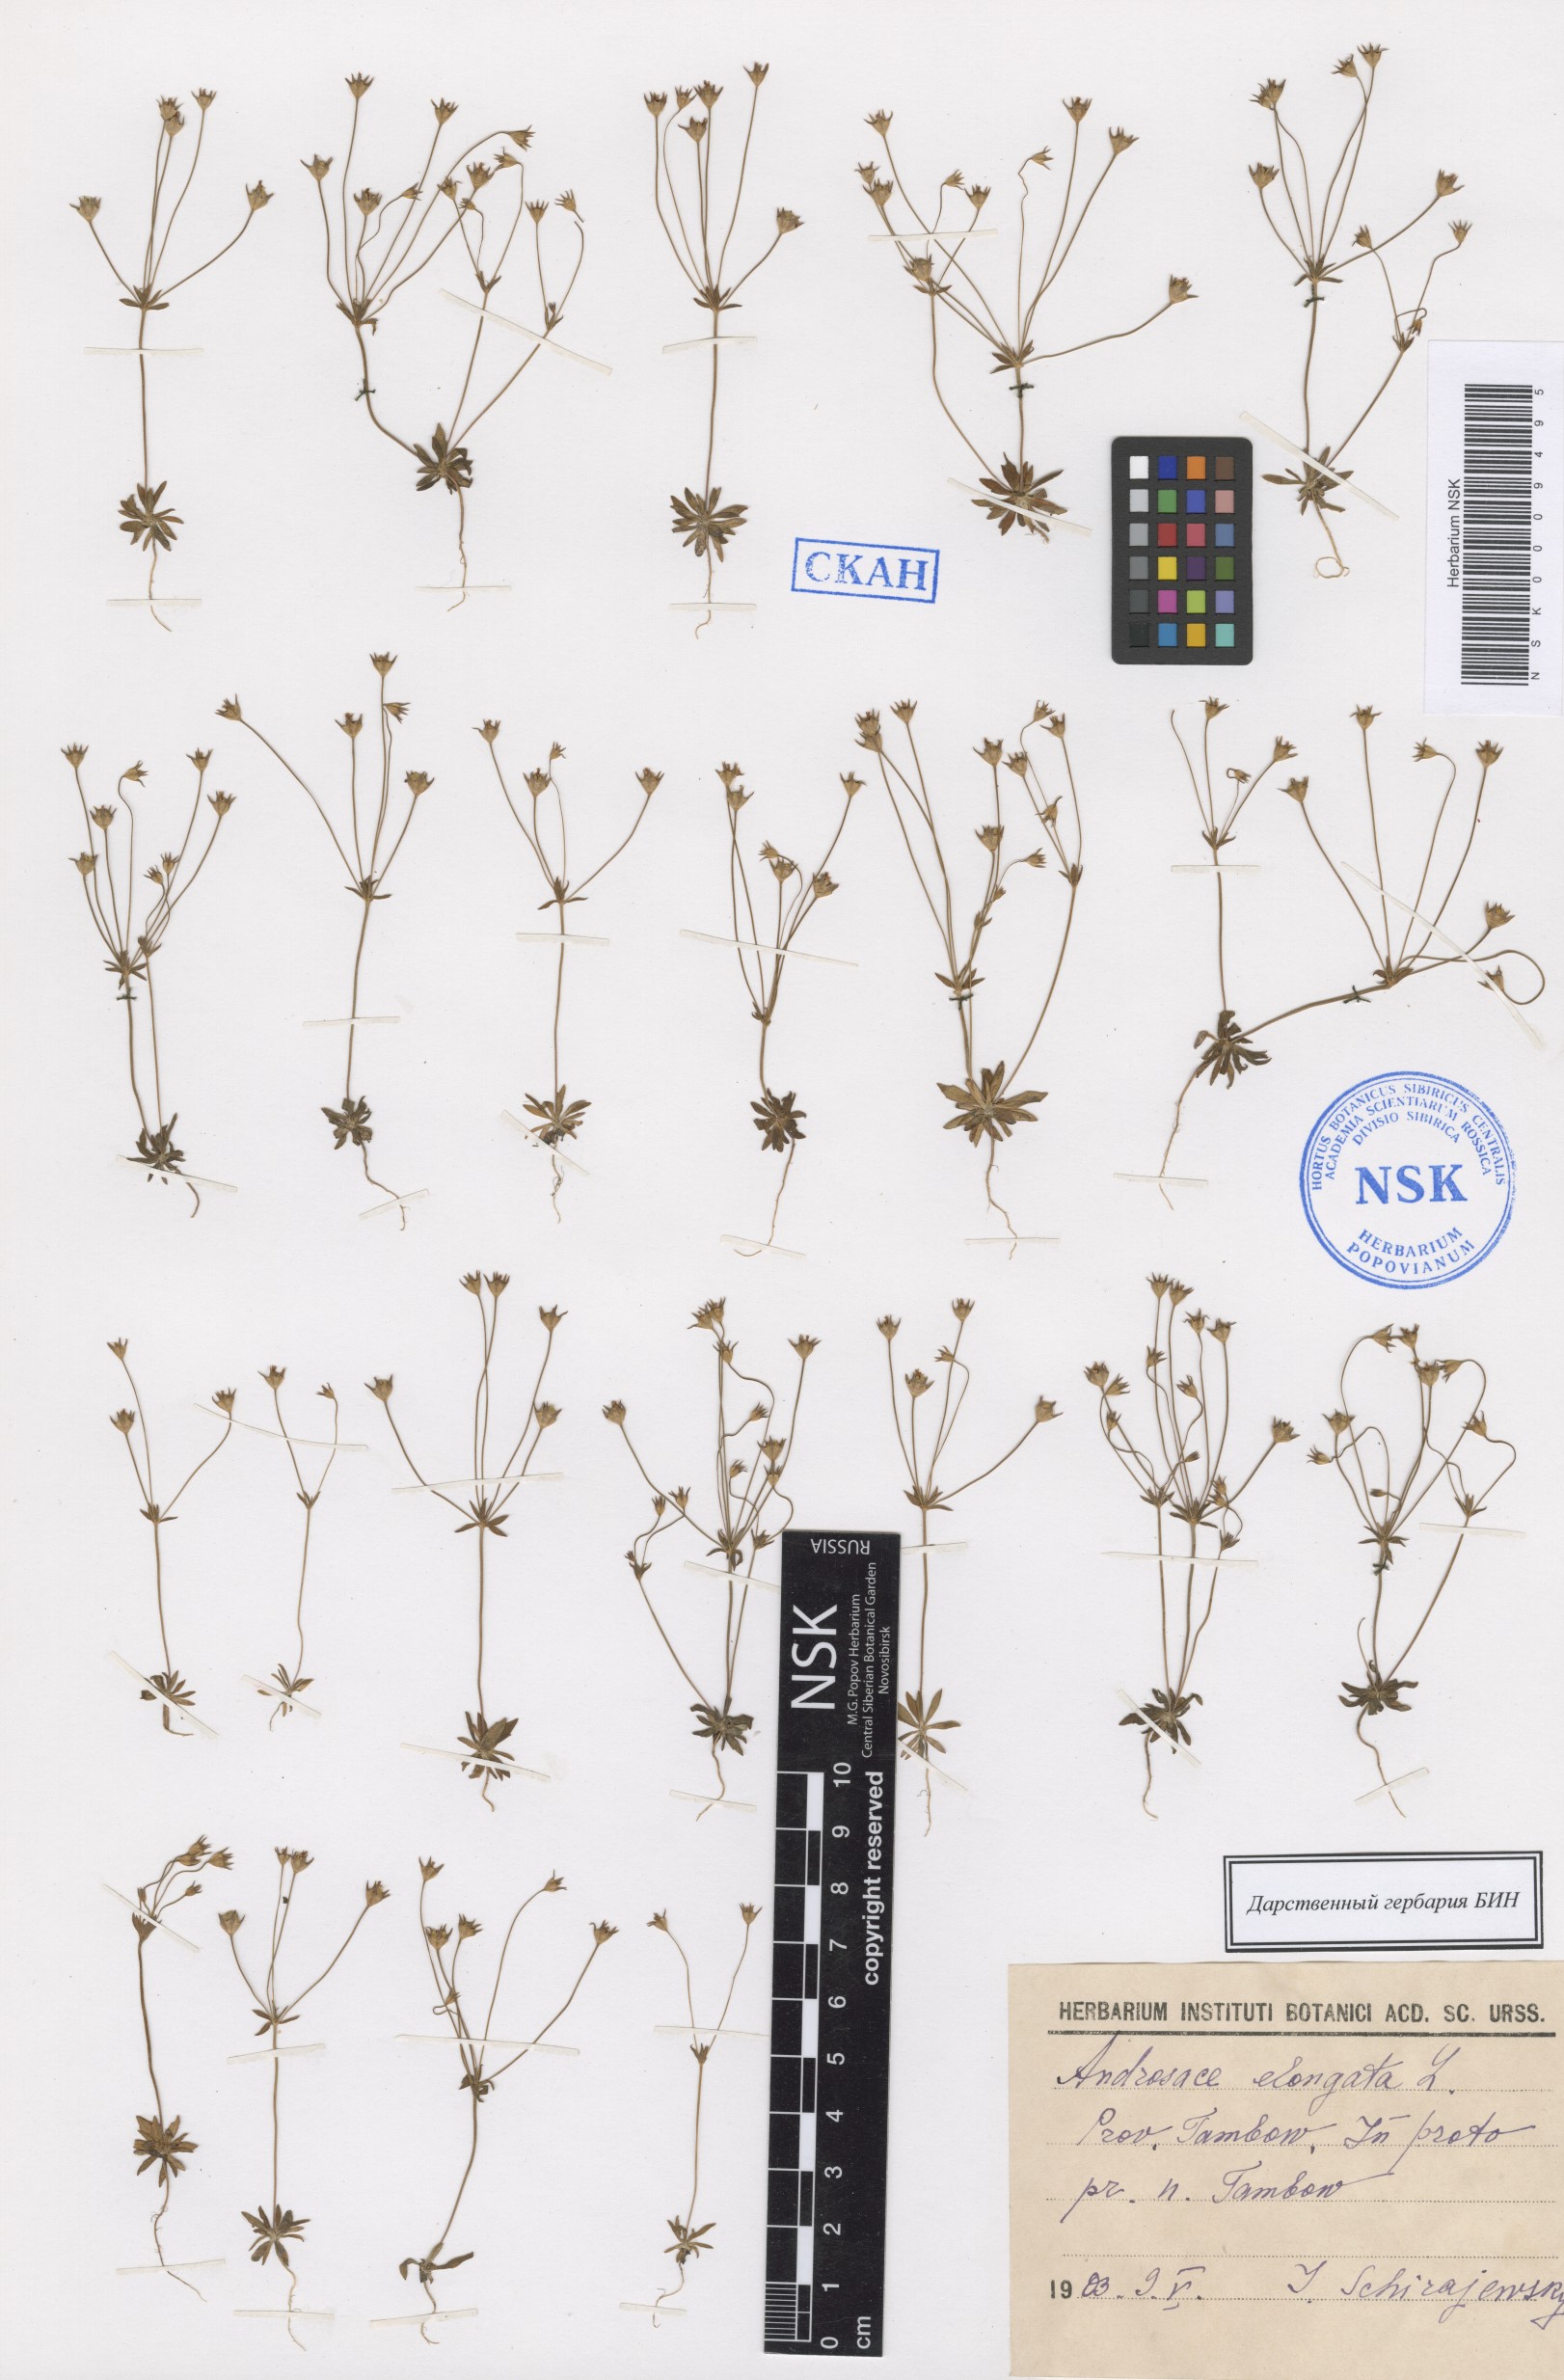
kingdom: Plantae
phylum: Tracheophyta
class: Magnoliopsida
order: Ericales
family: Primulaceae
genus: Androsace
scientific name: Androsace elongata
